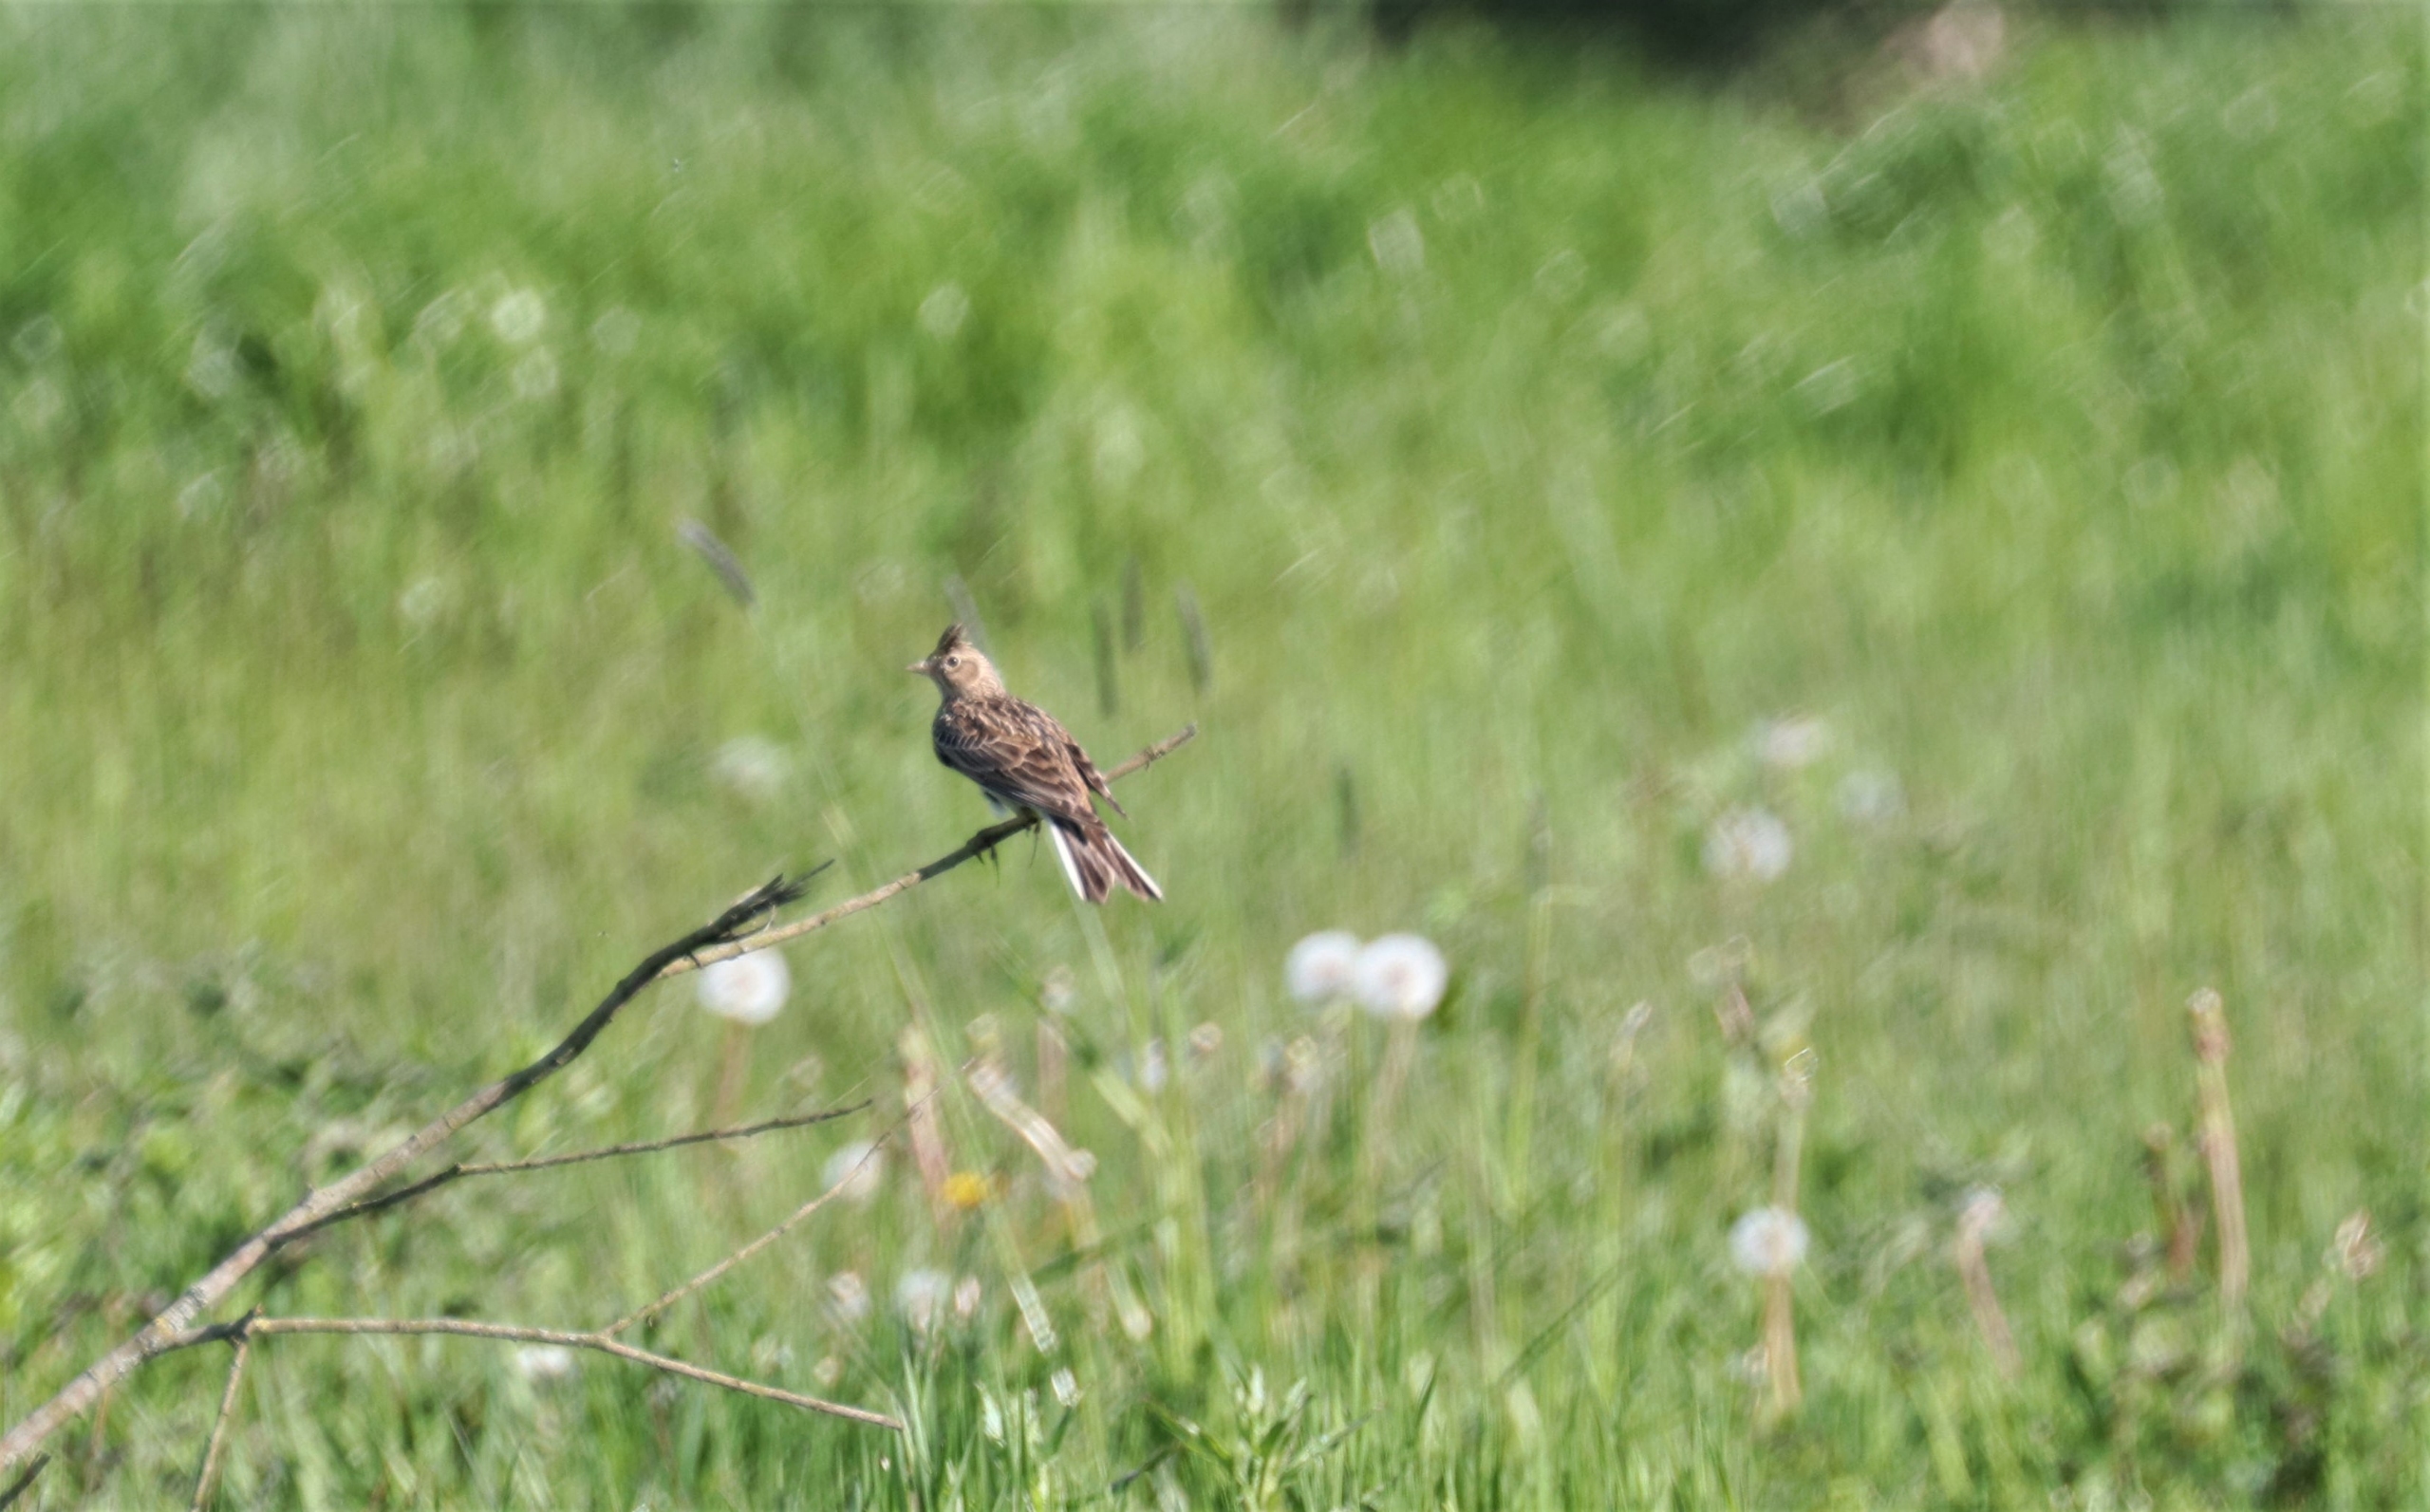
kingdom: Animalia
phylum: Chordata
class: Aves
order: Passeriformes
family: Alaudidae
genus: Alauda
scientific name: Alauda arvensis
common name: Sanglærke
